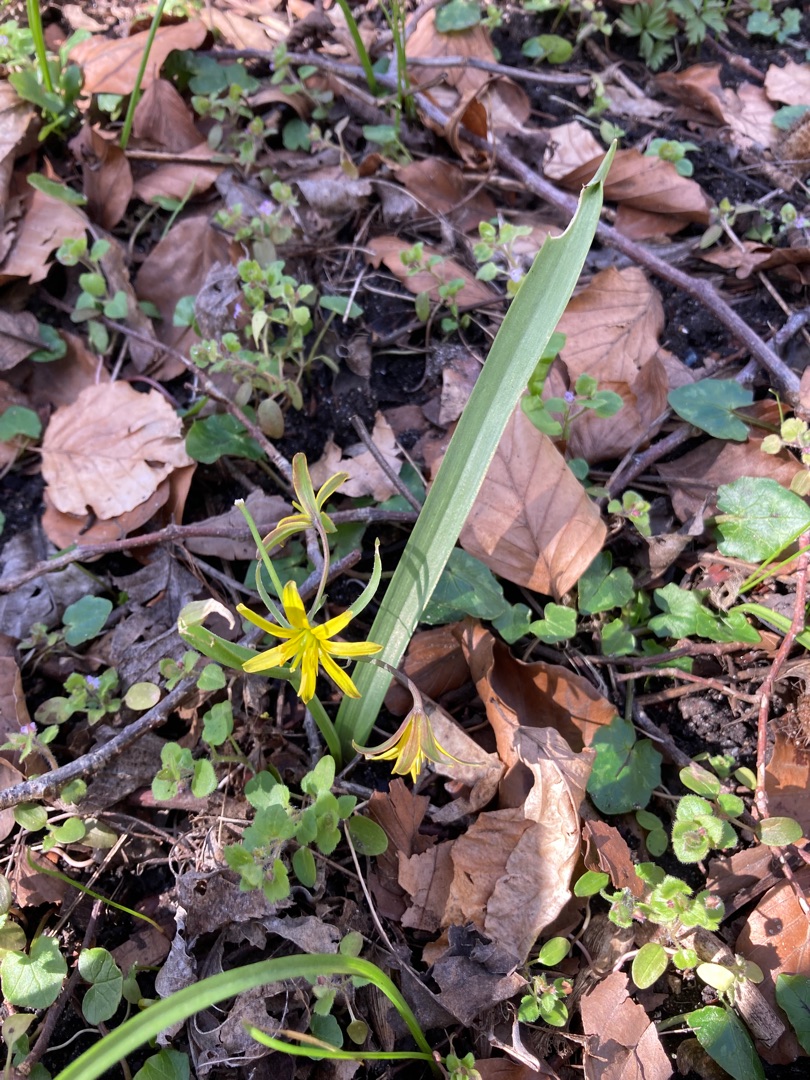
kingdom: Plantae
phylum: Tracheophyta
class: Liliopsida
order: Liliales
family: Liliaceae
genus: Gagea
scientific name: Gagea lutea
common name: Almindelig guldstjerne
